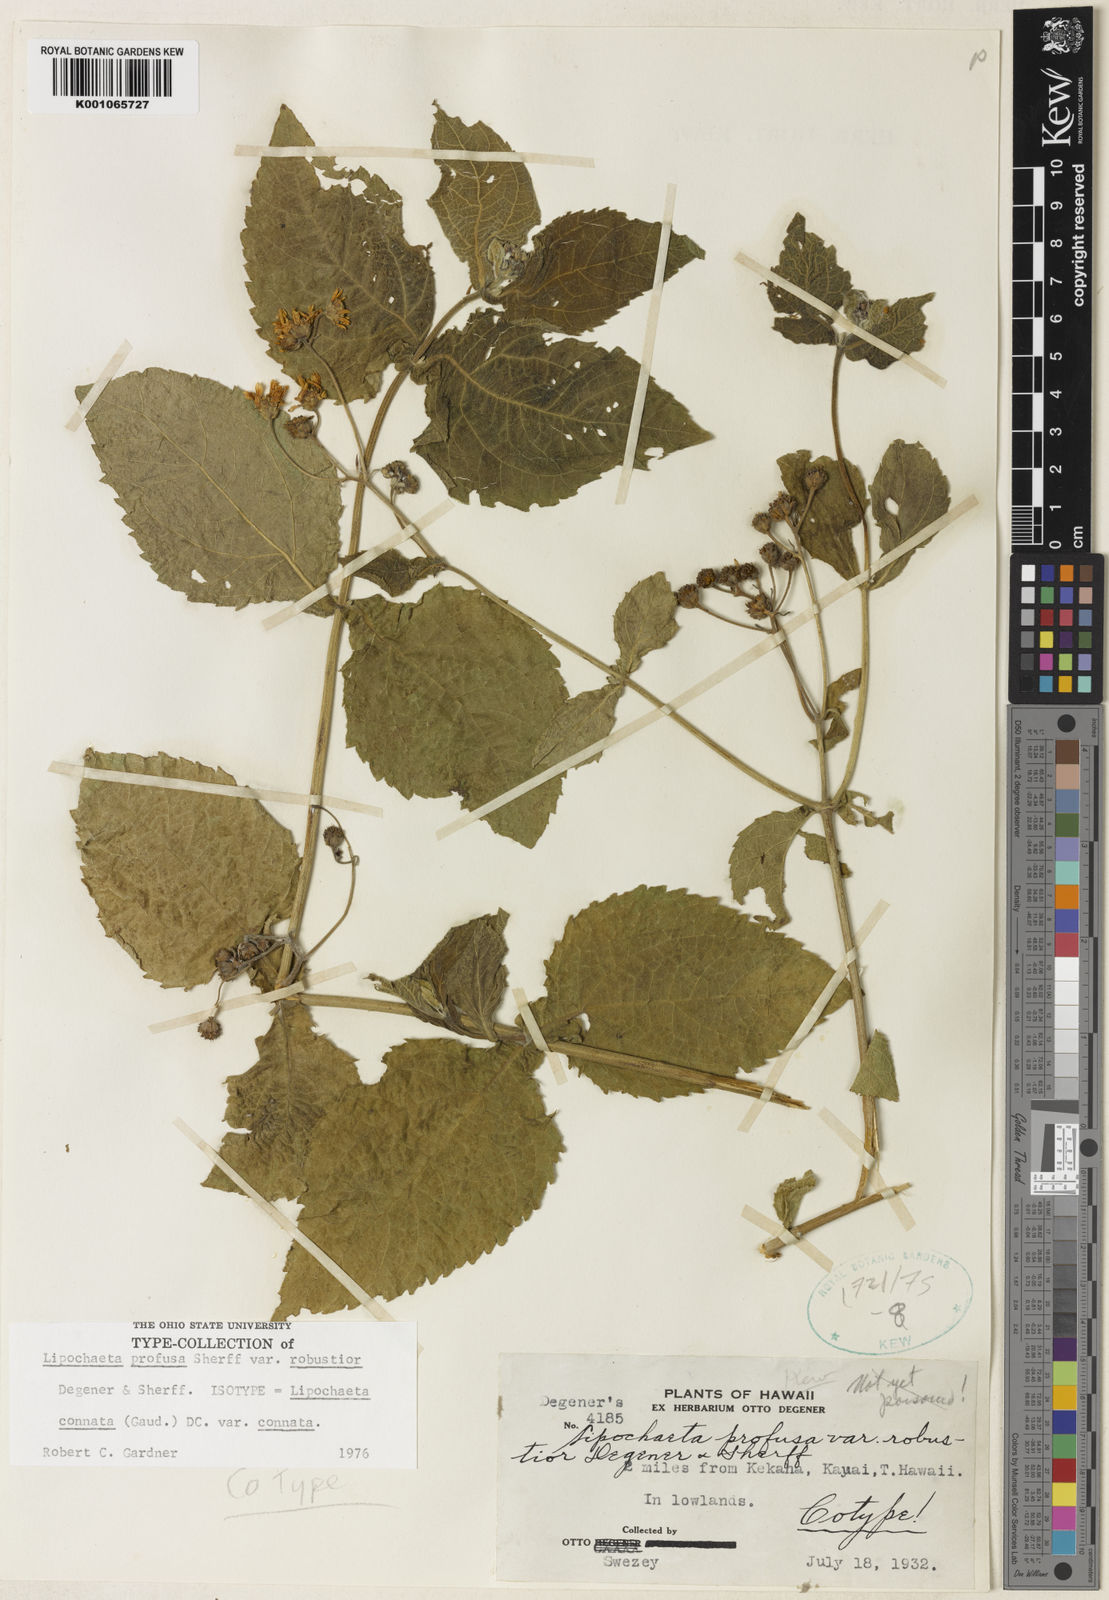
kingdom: Plantae
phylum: Tracheophyta
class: Magnoliopsida
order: Asterales
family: Asteraceae
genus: Lipochaeta
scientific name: Lipochaeta connata
